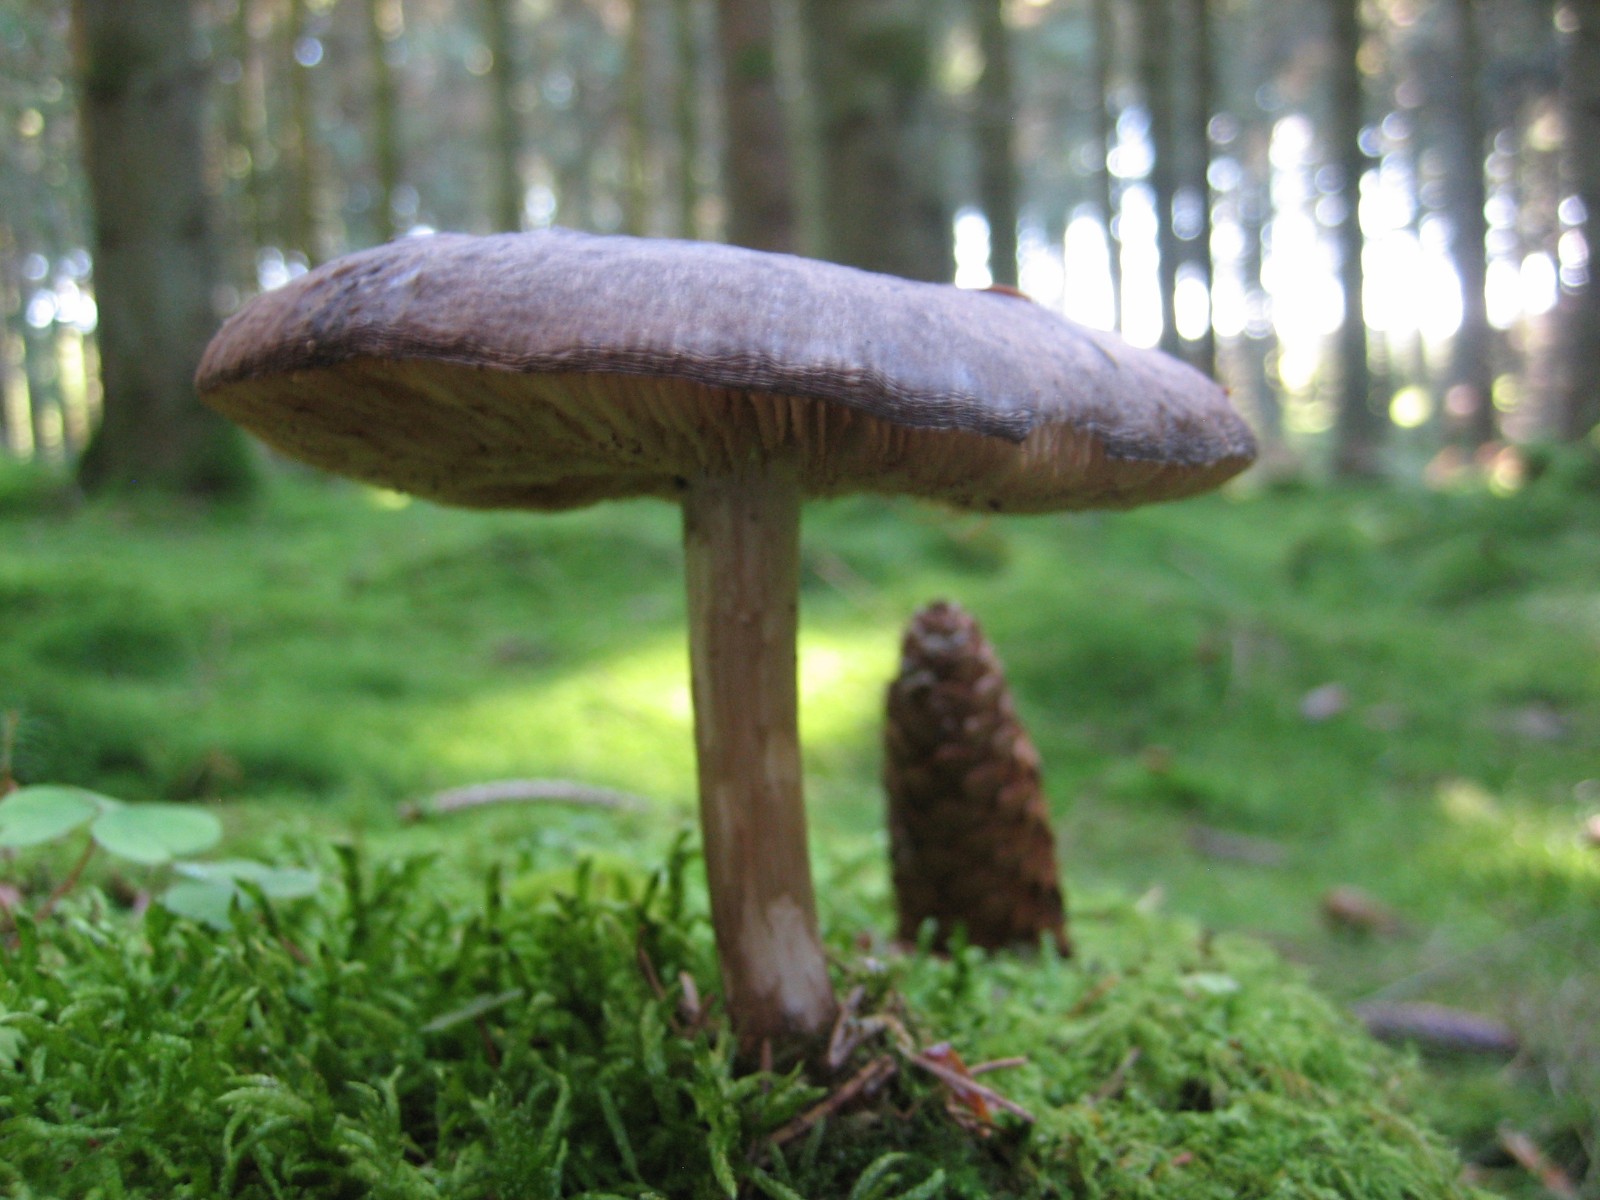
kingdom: Fungi
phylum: Basidiomycota
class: Agaricomycetes
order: Agaricales
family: Pluteaceae
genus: Pluteus
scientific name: Pluteus
